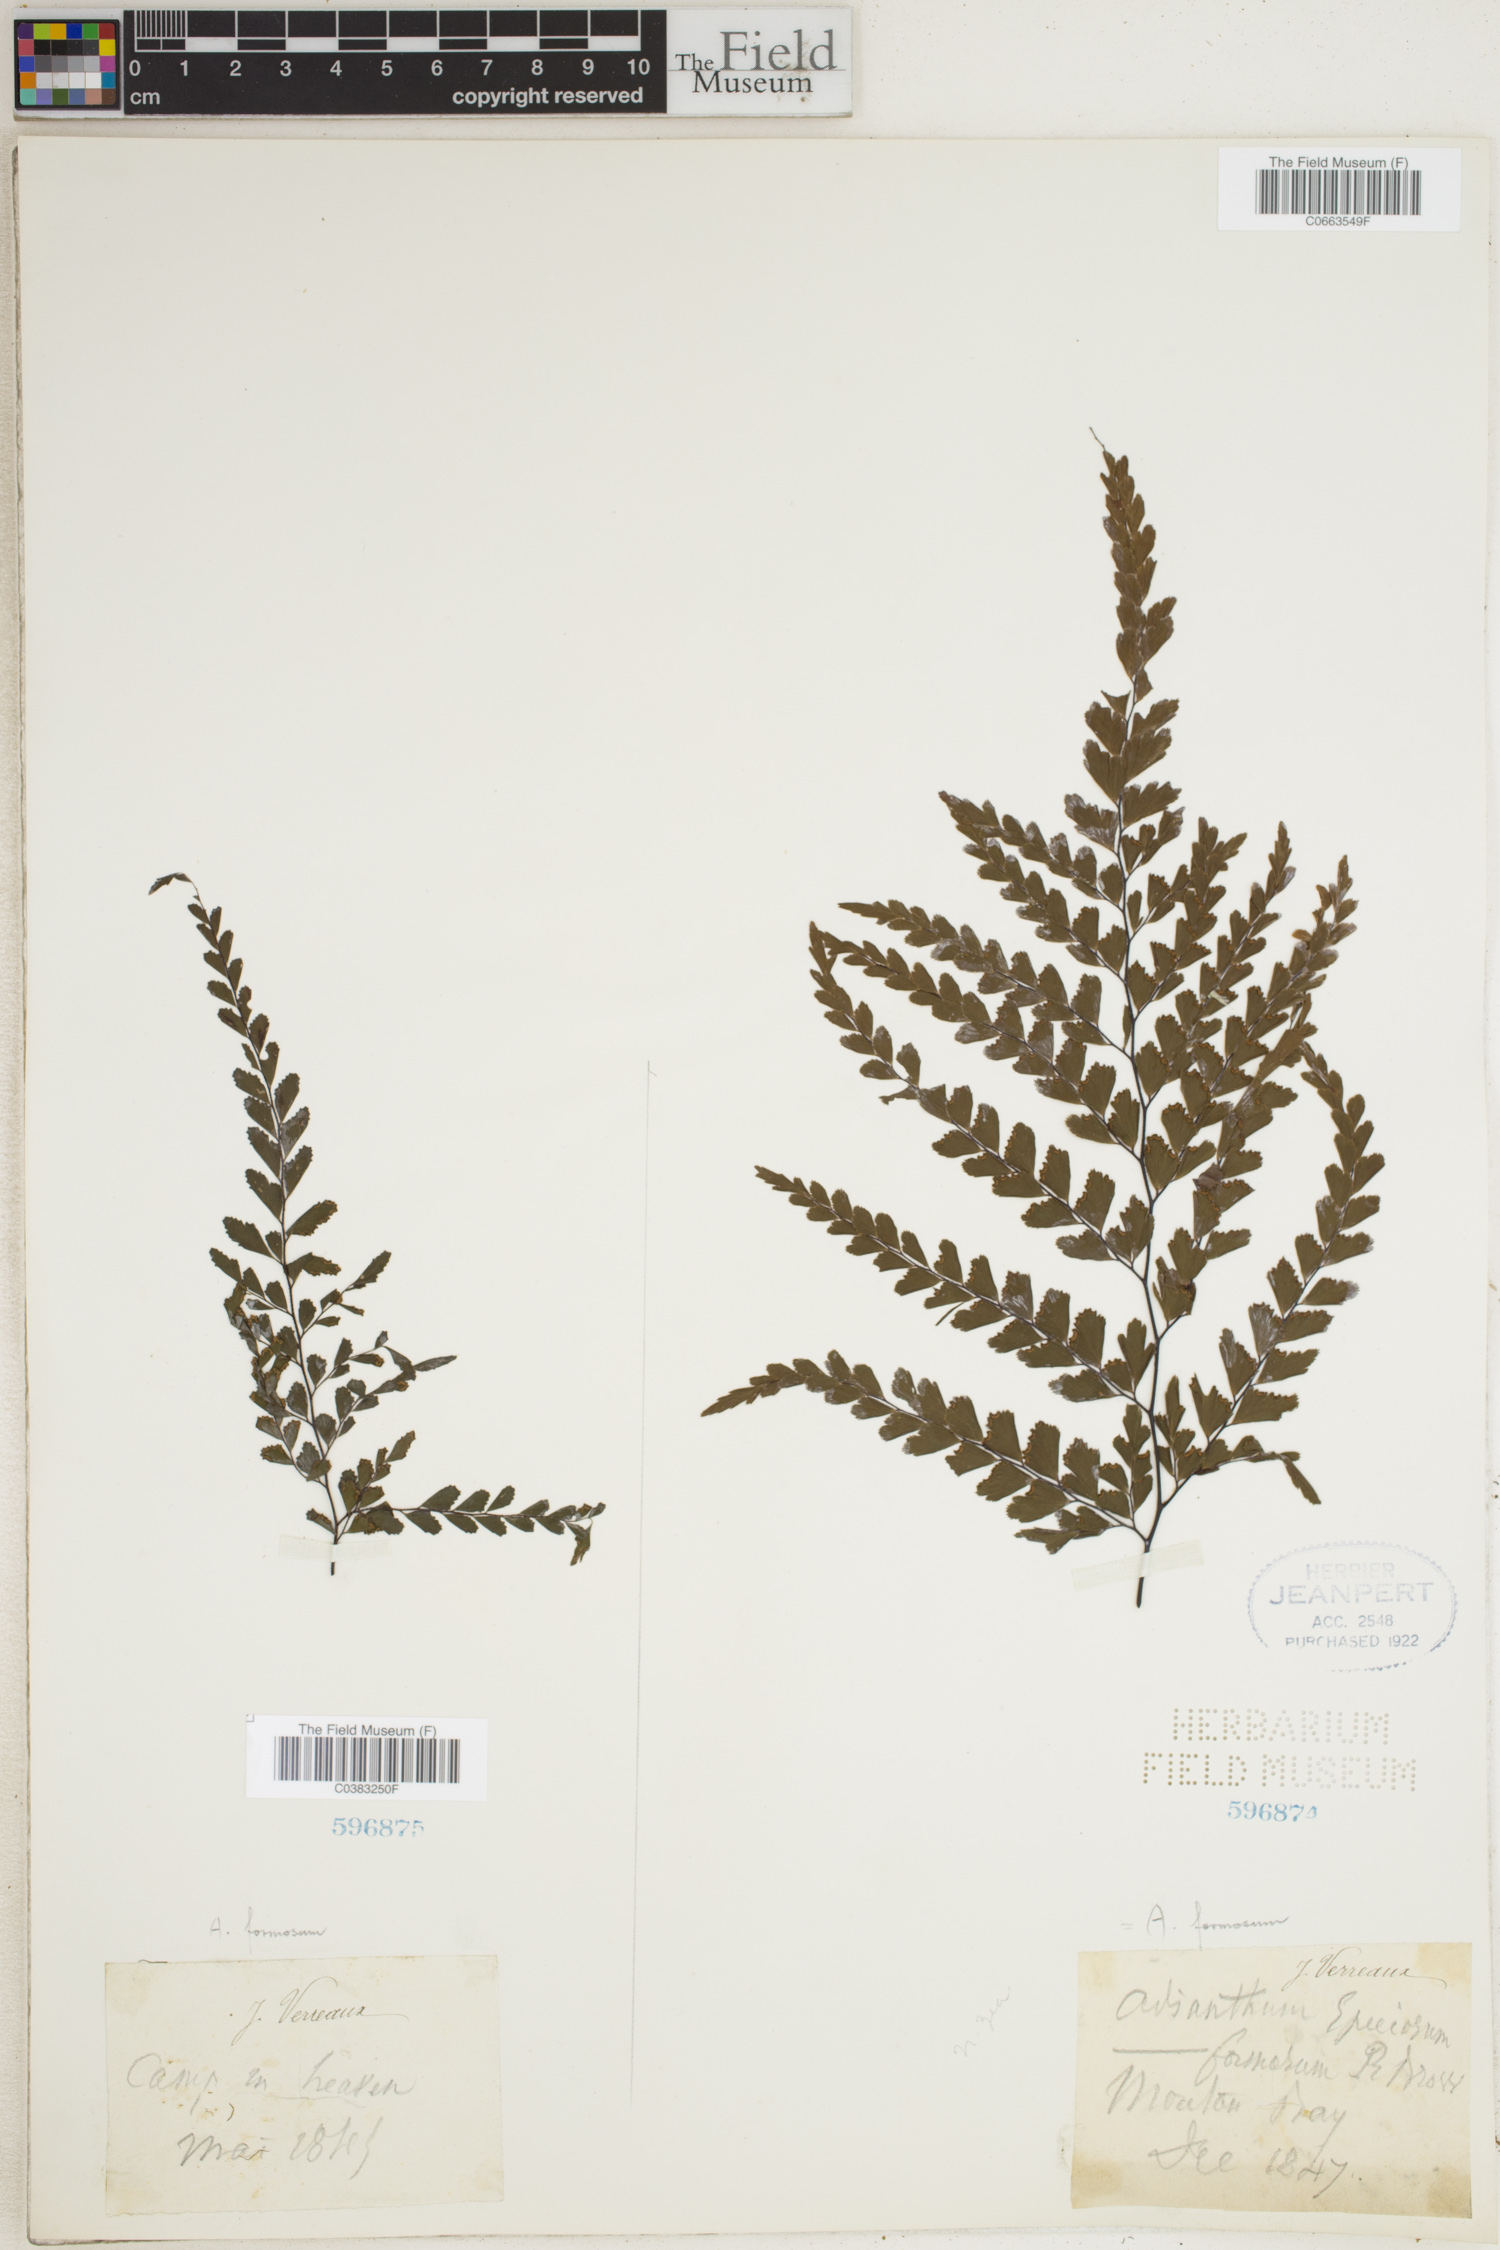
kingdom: Plantae
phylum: Tracheophyta
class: Polypodiopsida
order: Polypodiales
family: Pteridaceae
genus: Adiantum
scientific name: Adiantum formosum
